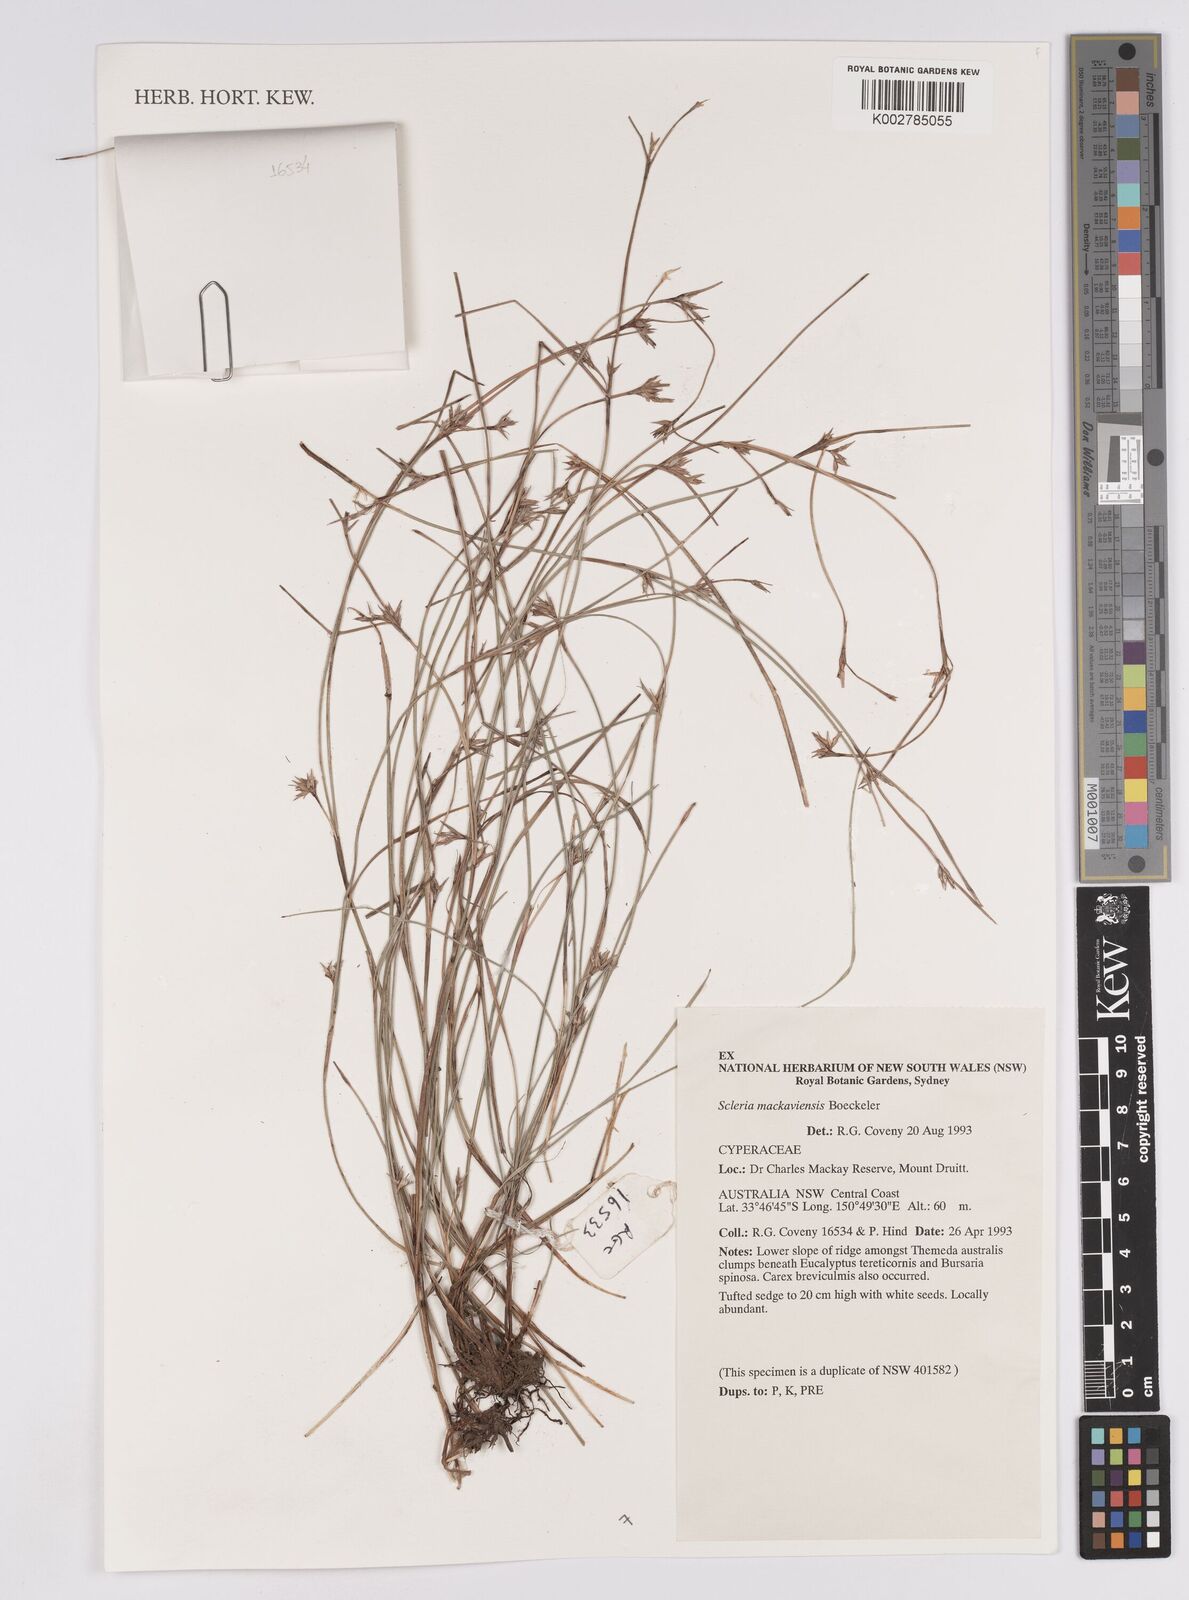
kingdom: Plantae
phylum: Tracheophyta
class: Liliopsida
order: Poales
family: Cyperaceae
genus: Scleria
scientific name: Scleria mackaviensis
